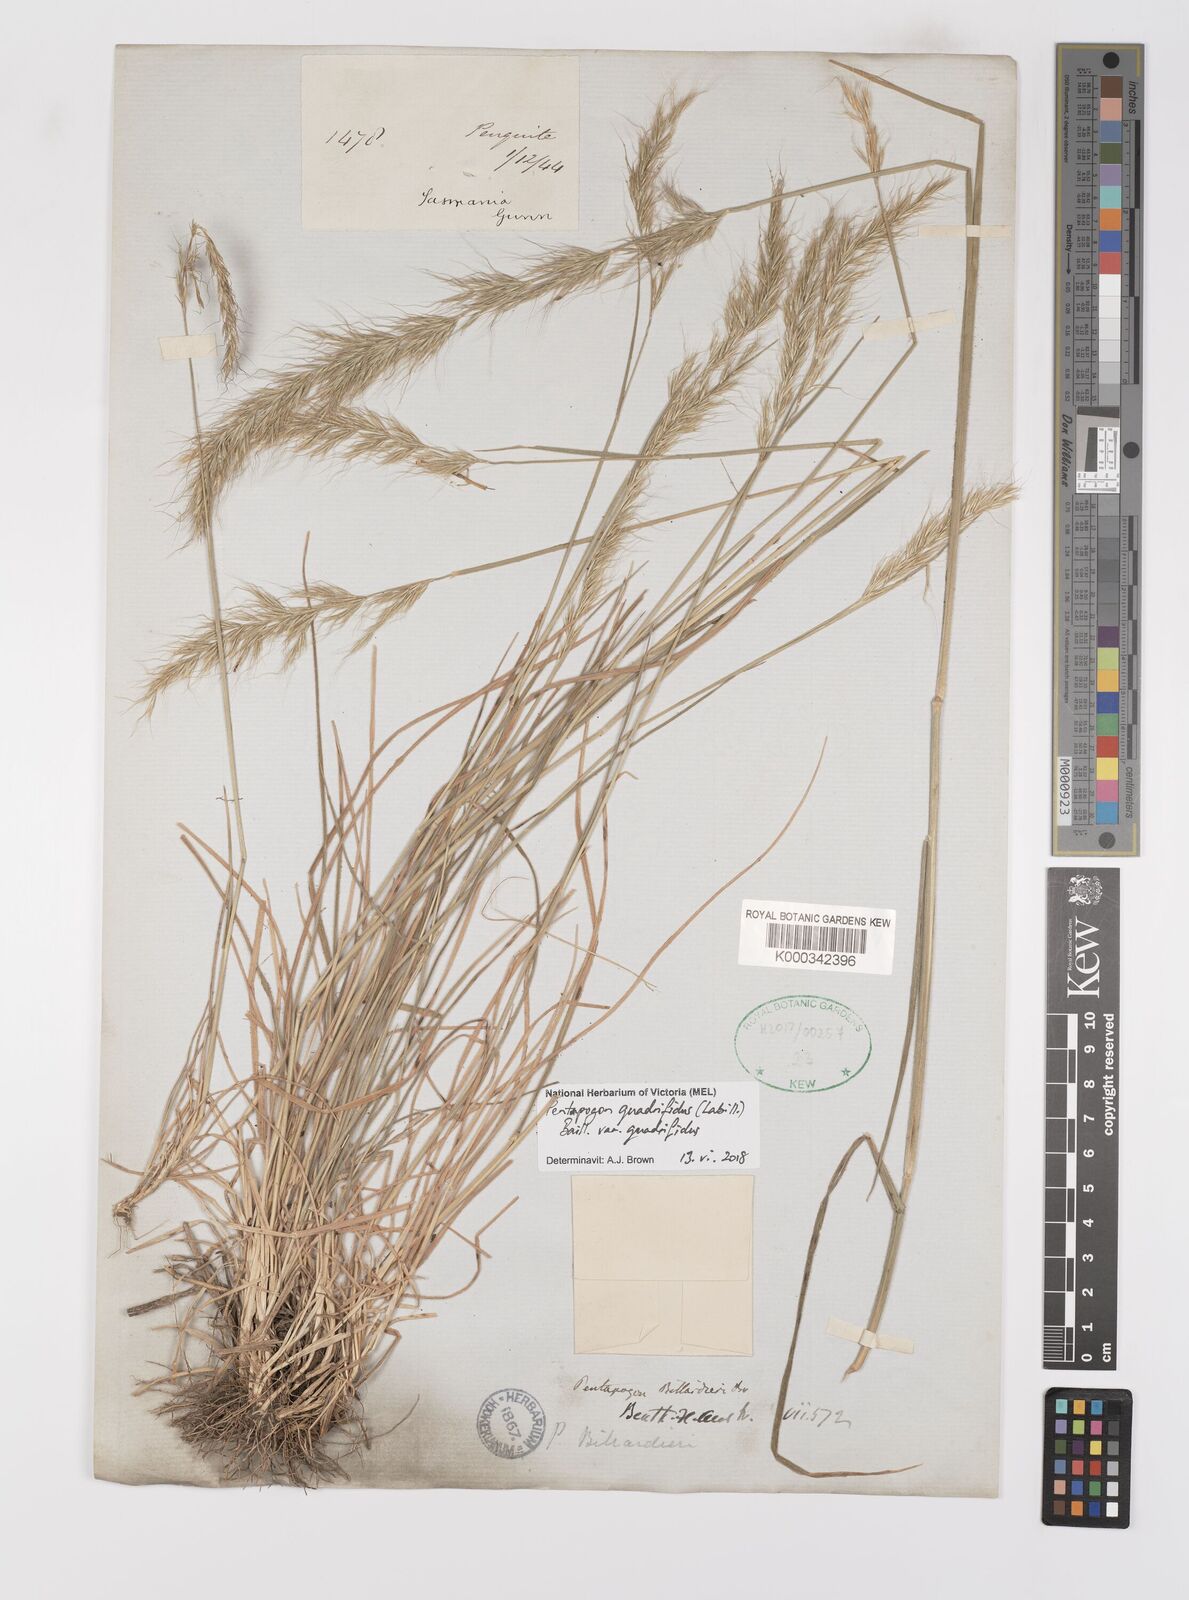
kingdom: Plantae
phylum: Tracheophyta
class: Liliopsida
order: Poales
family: Poaceae
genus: Pentapogon
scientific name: Pentapogon
